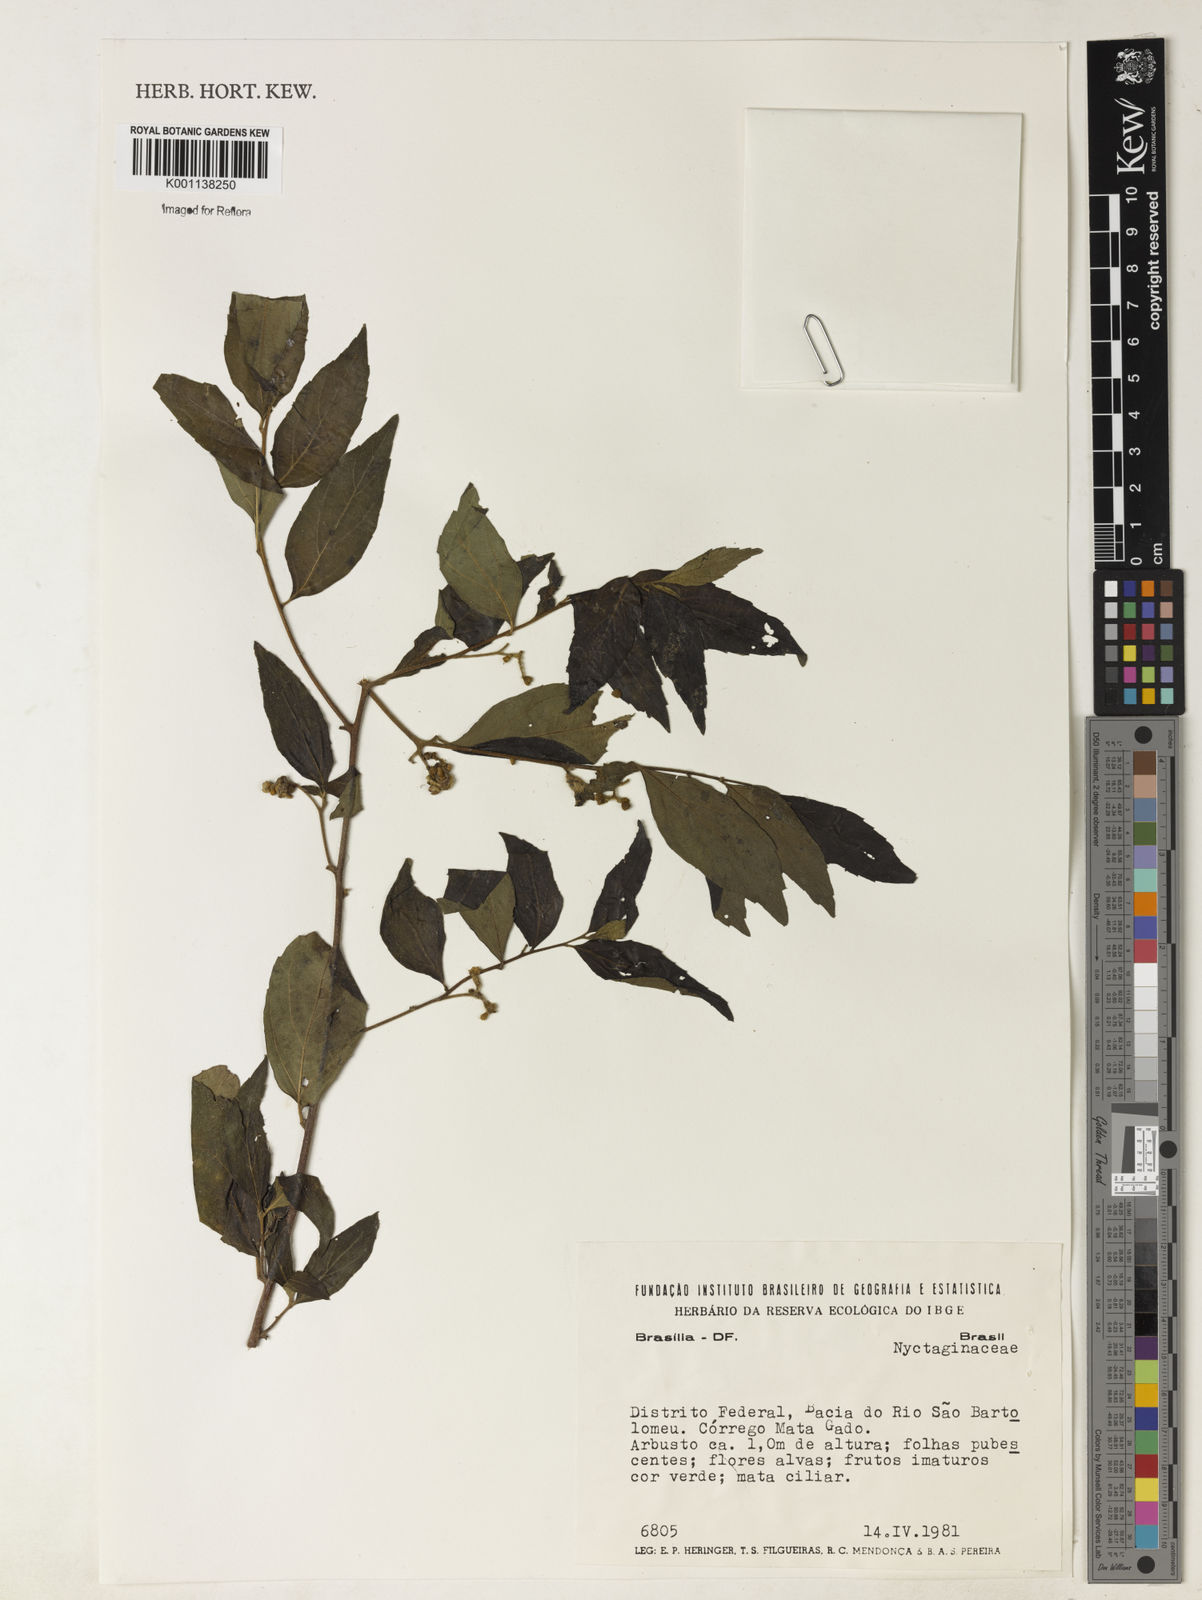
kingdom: Plantae
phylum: Tracheophyta
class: Magnoliopsida
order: Boraginales
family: Cordiaceae
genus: Varronia
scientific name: Varronia
